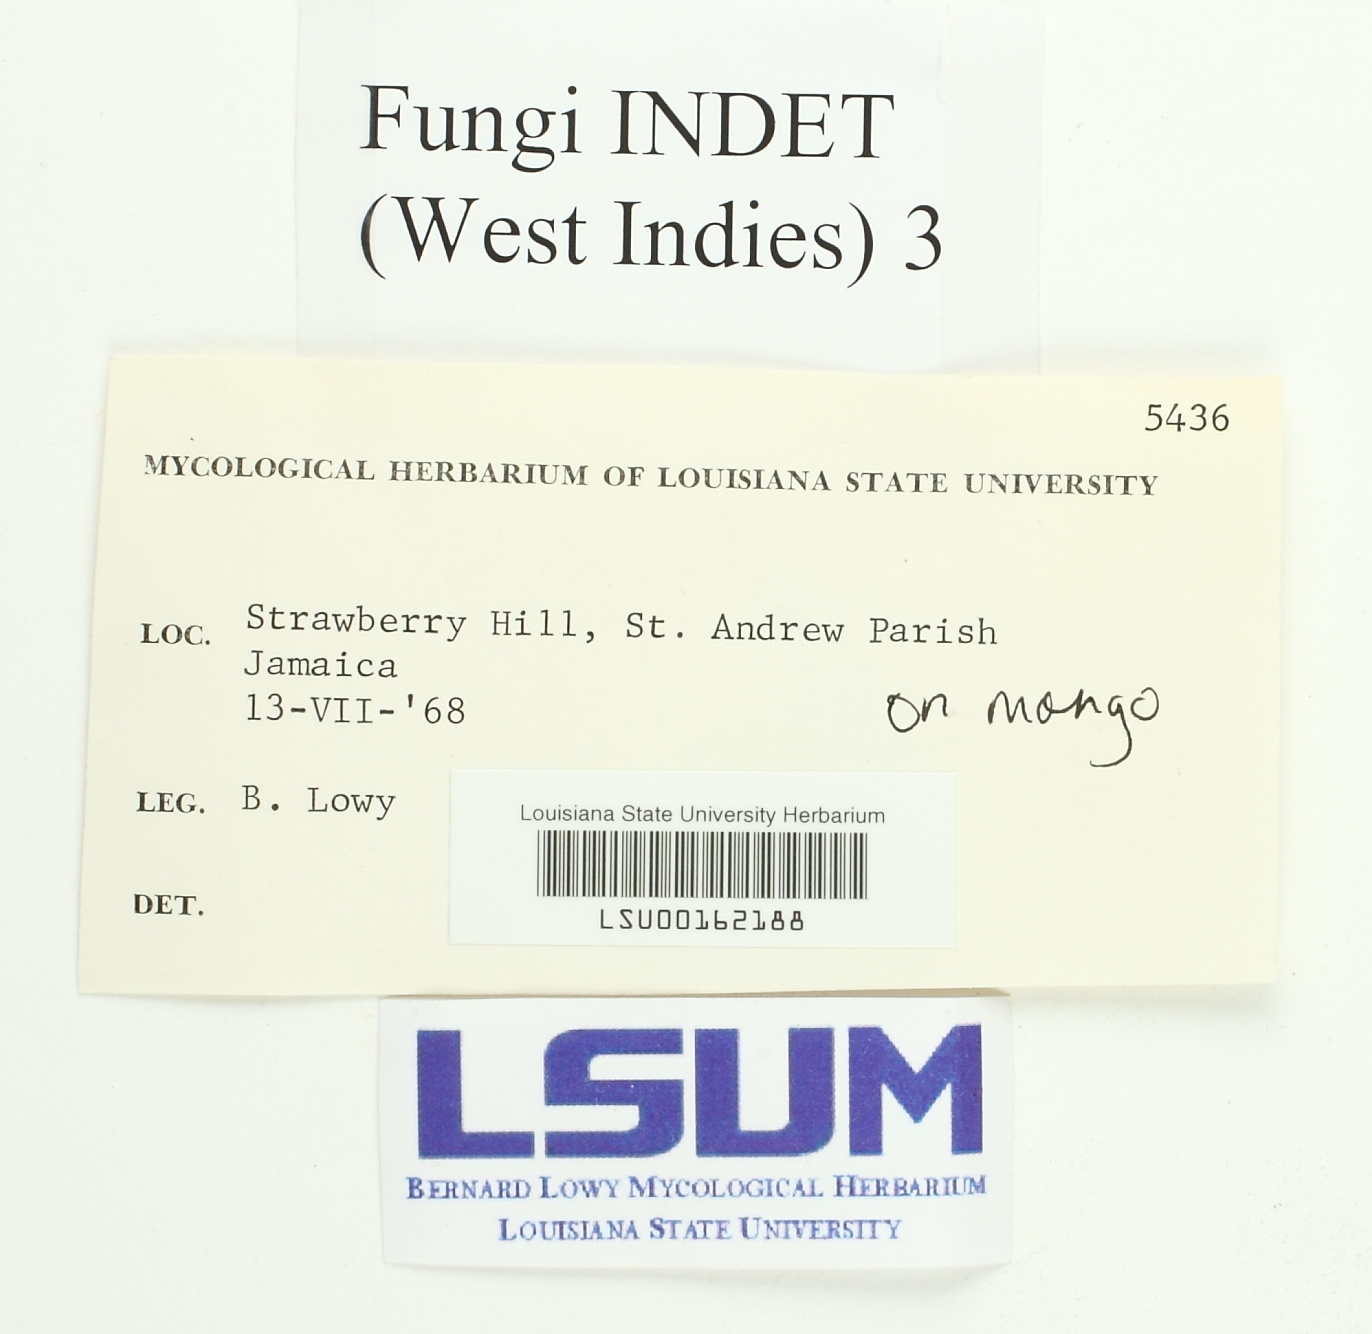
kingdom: Fungi
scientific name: Fungi
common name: Fungi
